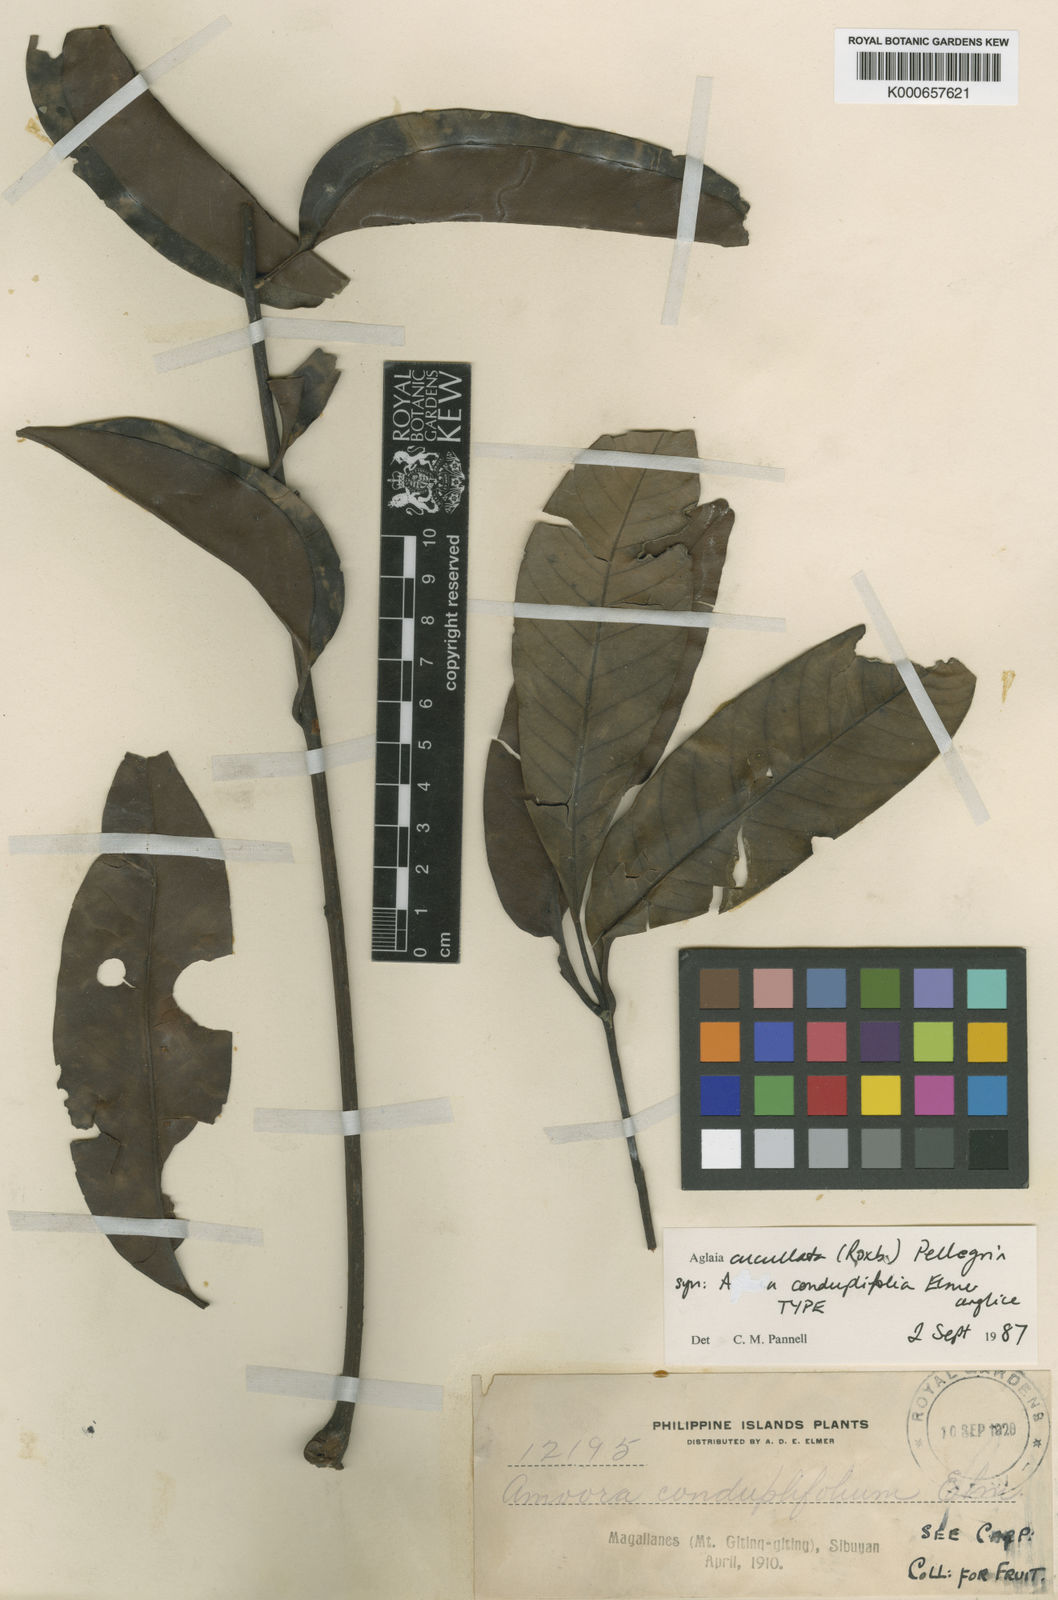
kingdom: Plantae
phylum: Tracheophyta
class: Magnoliopsida
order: Sapindales
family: Meliaceae
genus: Aglaia
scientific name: Aglaia cucullata
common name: Pacific maple
